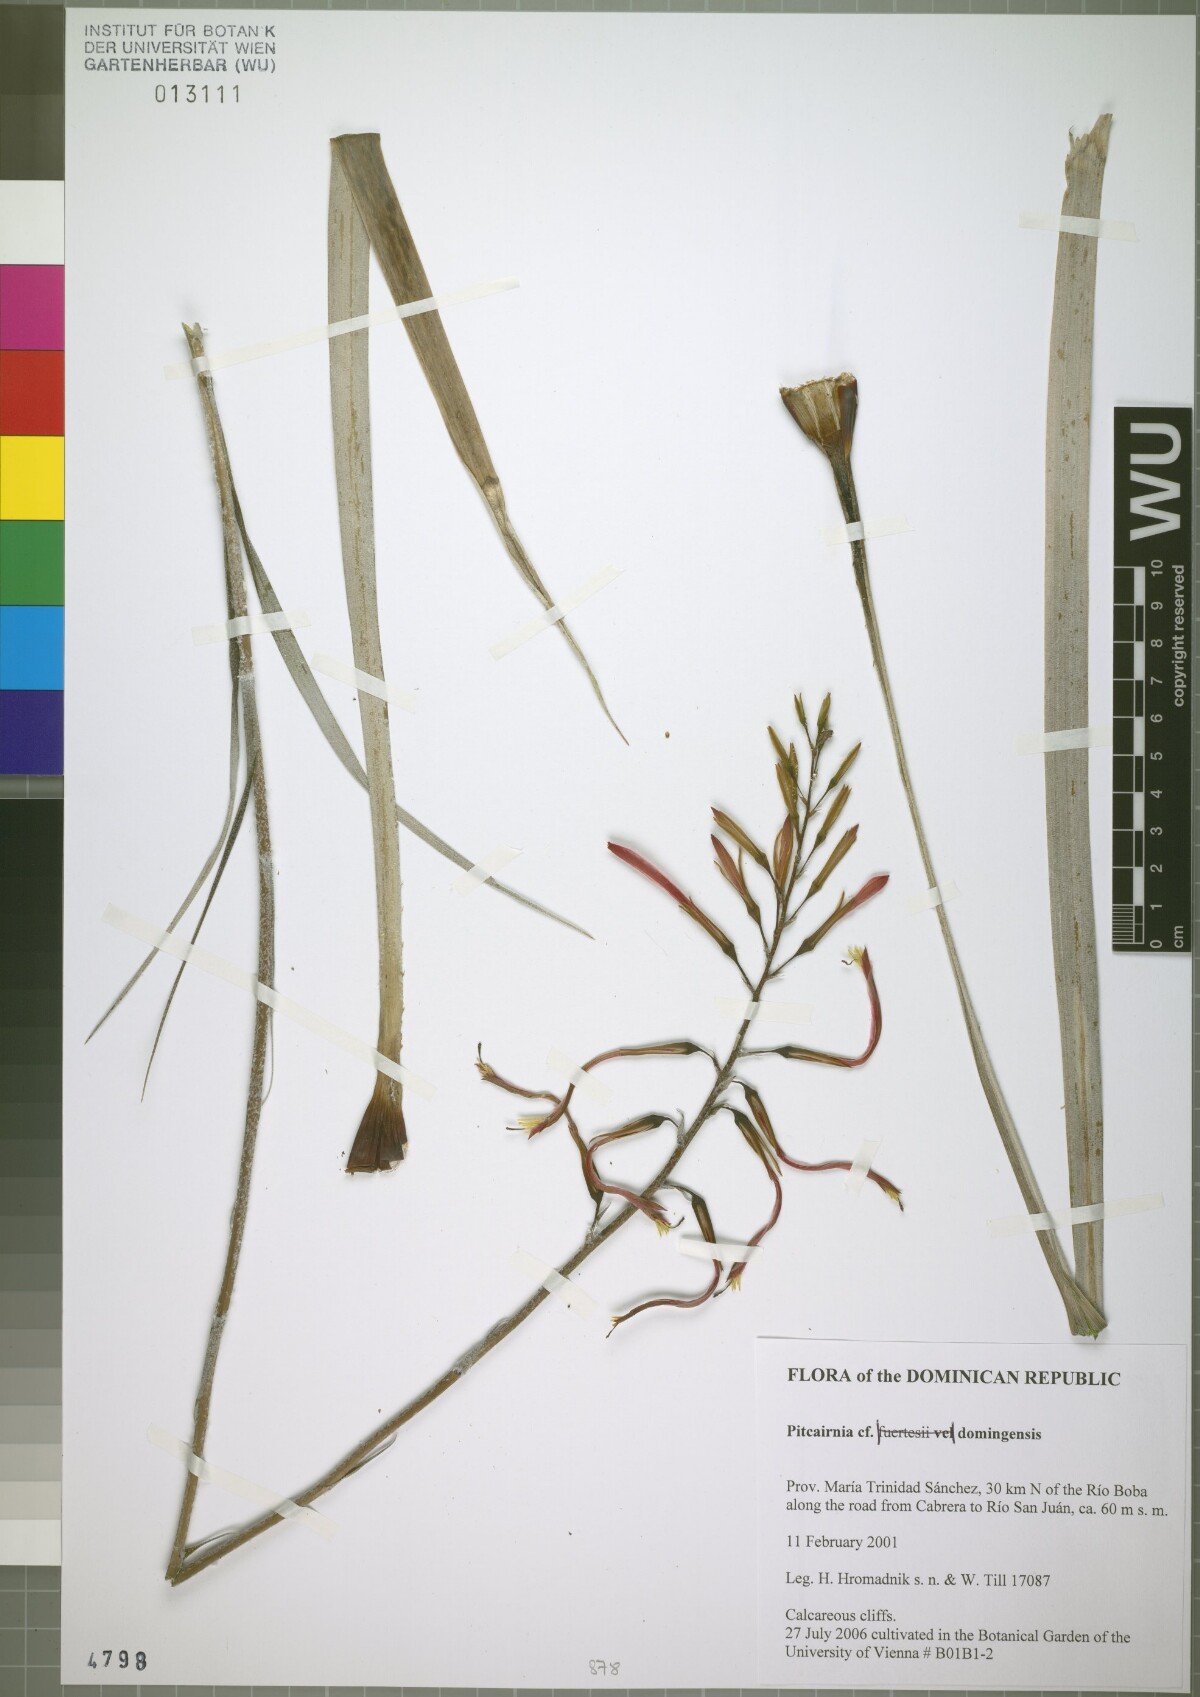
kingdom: Plantae
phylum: Tracheophyta
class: Liliopsida
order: Poales
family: Bromeliaceae
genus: Pitcairnia
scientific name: Pitcairnia domingensis
